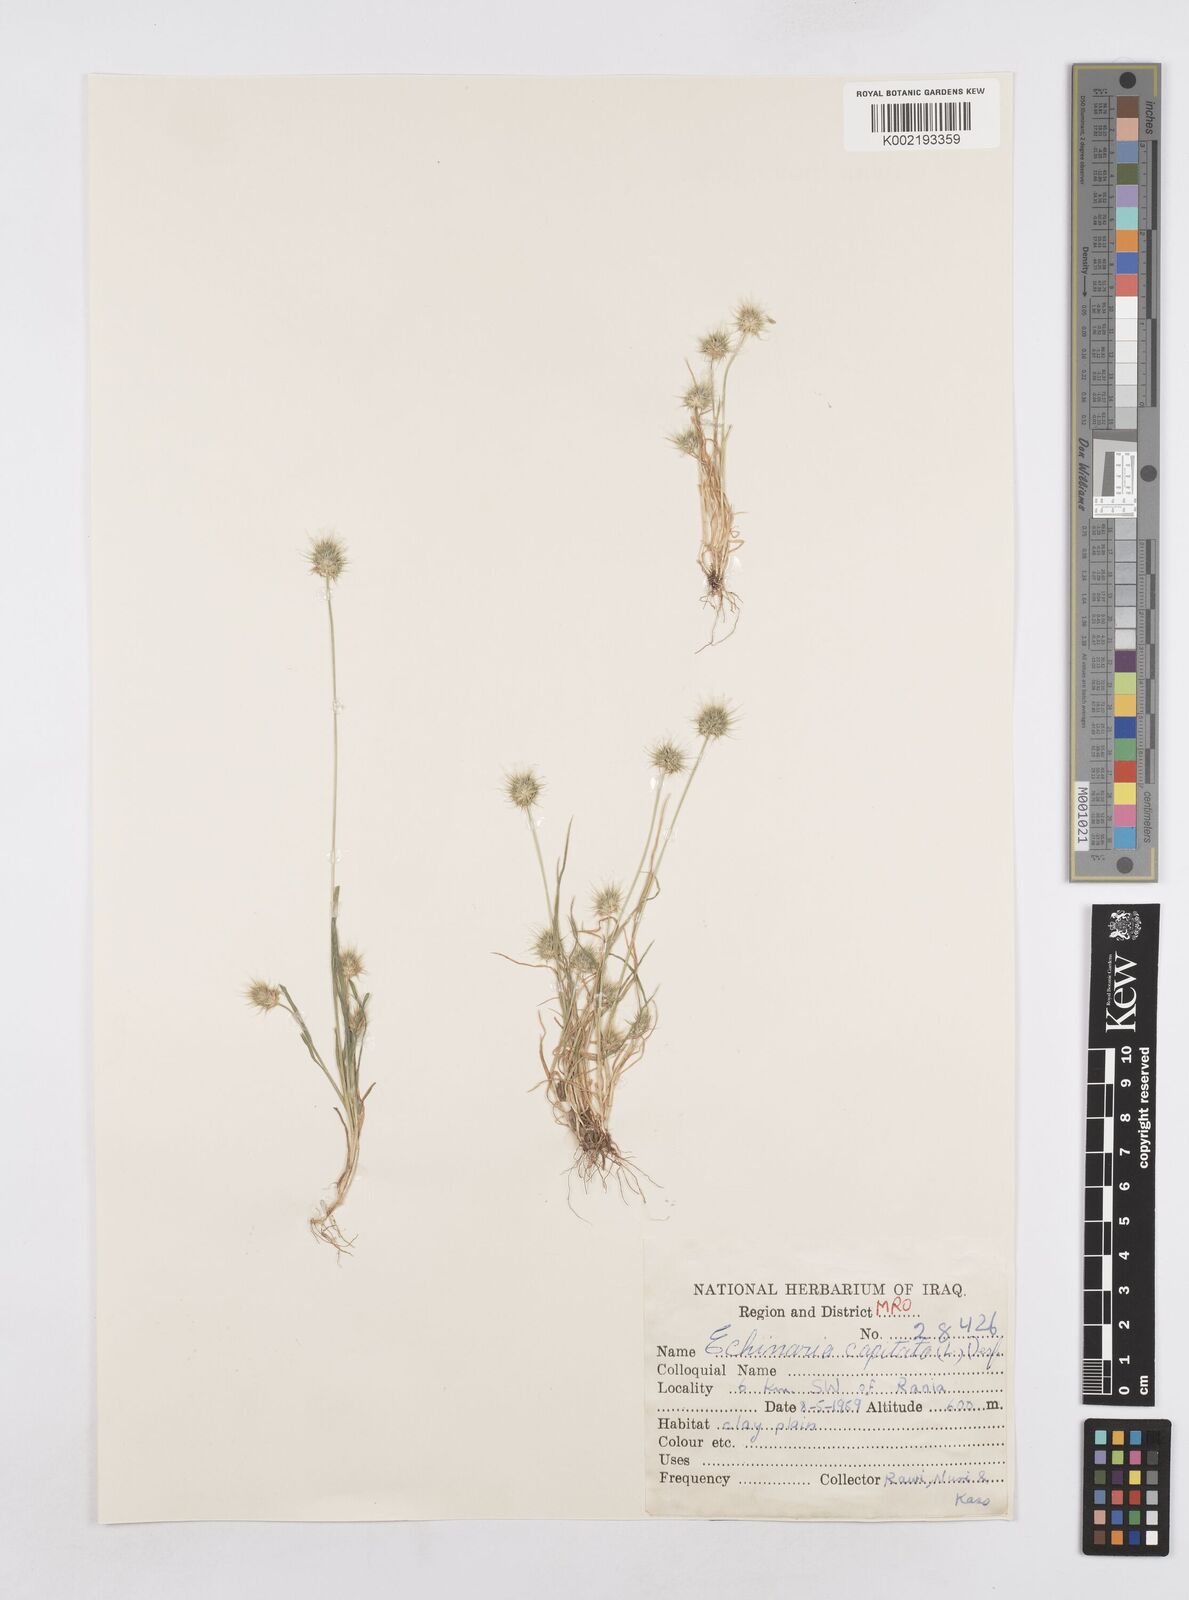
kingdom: Plantae
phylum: Tracheophyta
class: Liliopsida
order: Poales
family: Poaceae
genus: Echinaria
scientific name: Echinaria capitata
